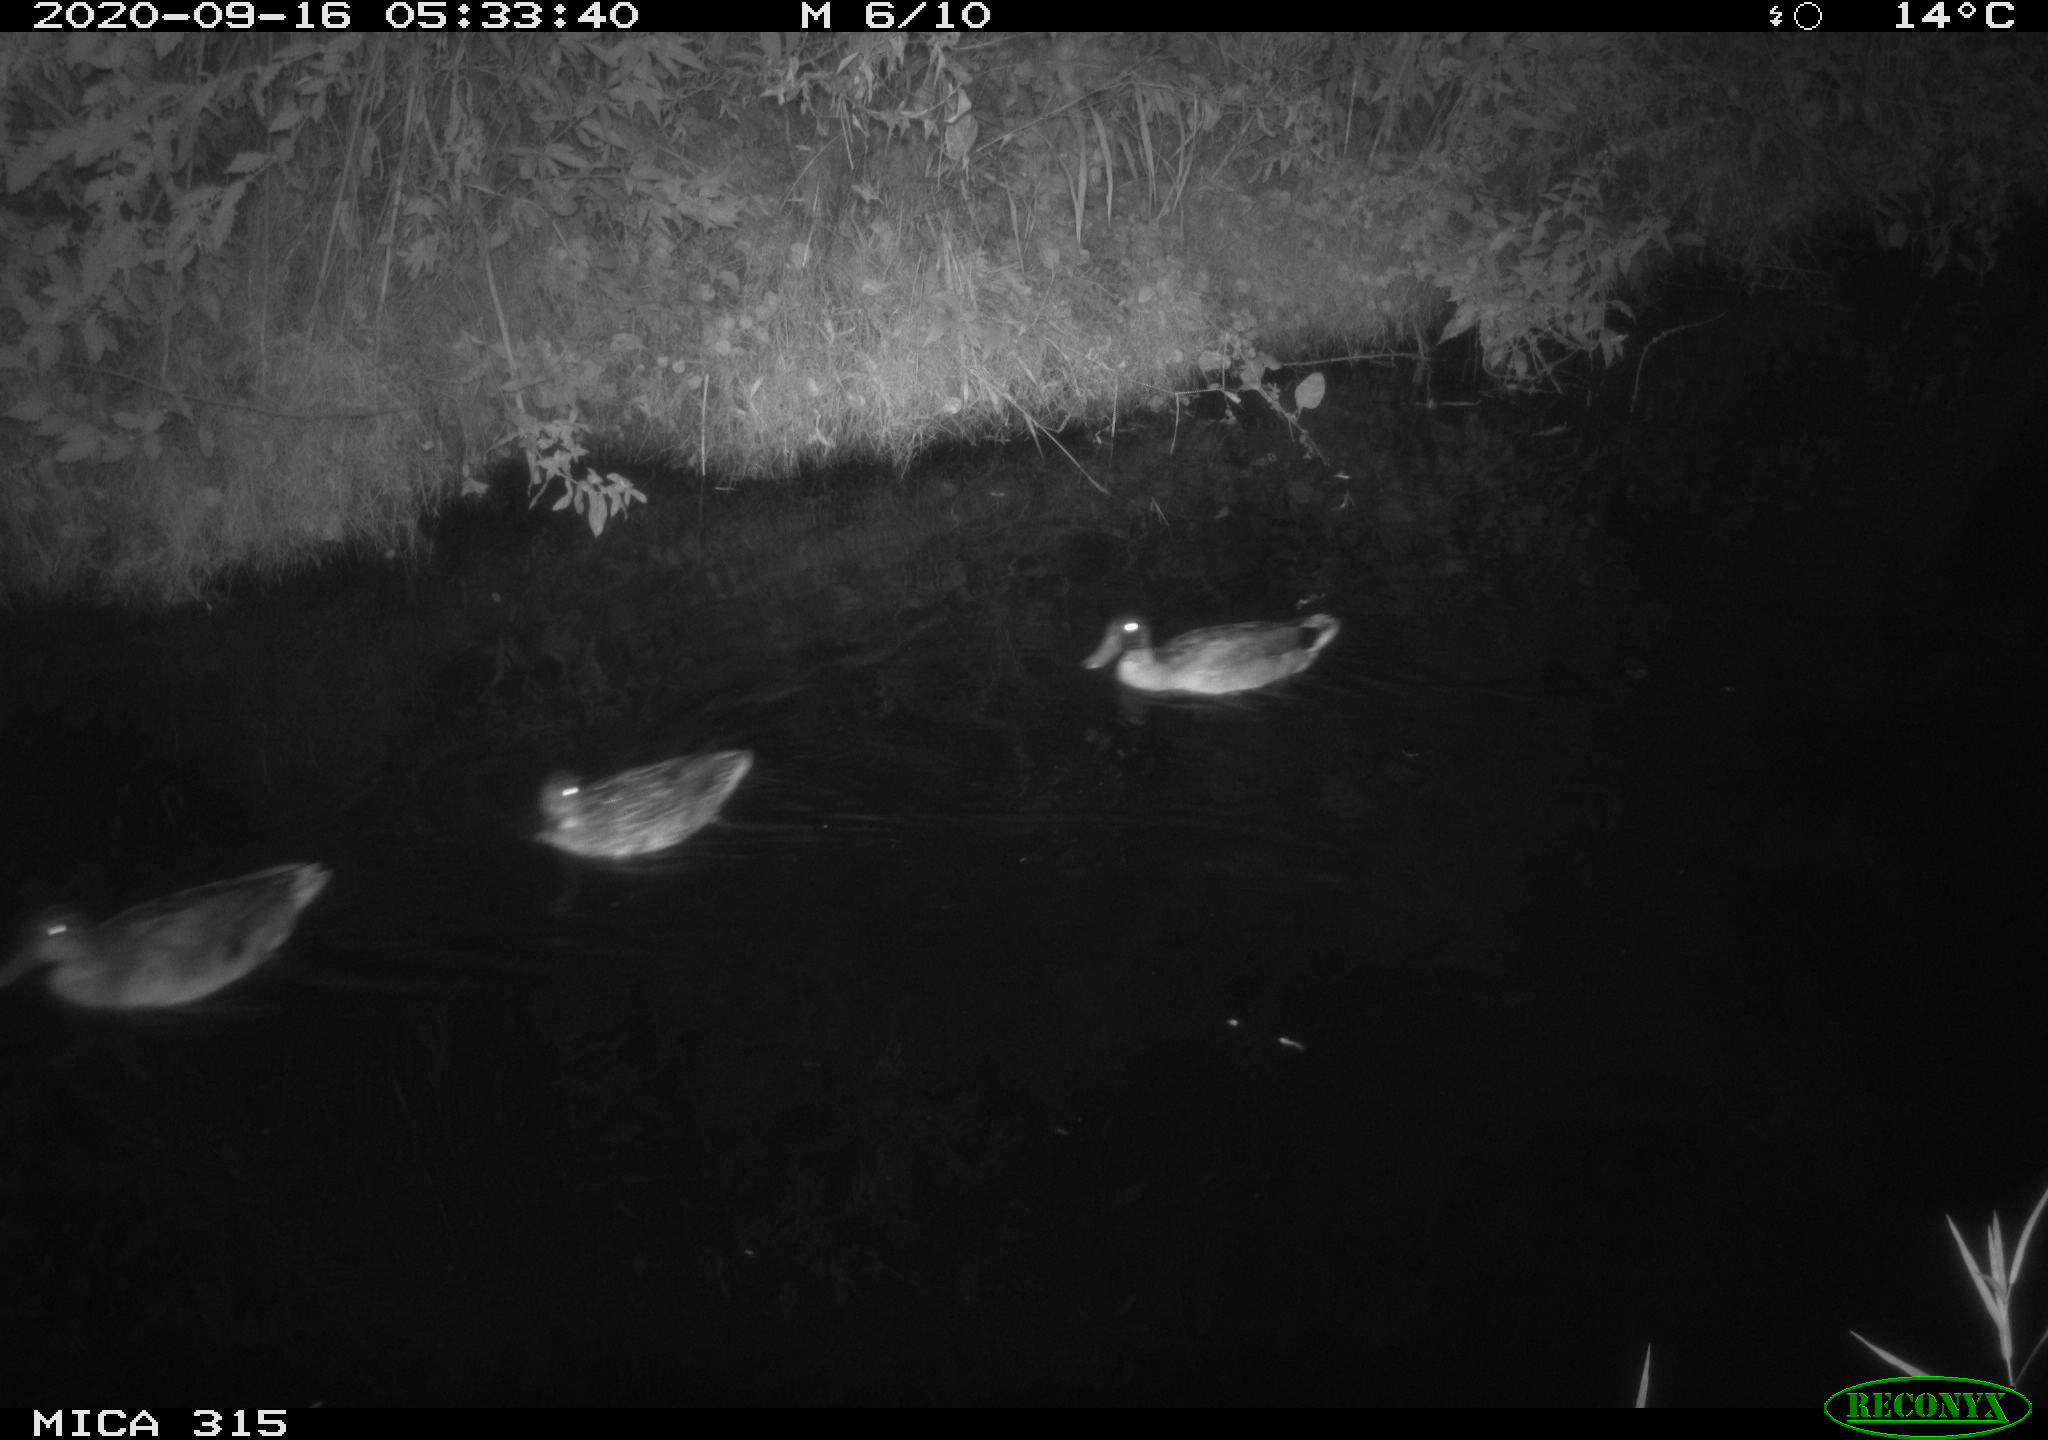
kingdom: Animalia
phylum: Chordata
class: Aves
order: Anseriformes
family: Anatidae
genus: Anas
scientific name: Anas platyrhynchos
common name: Mallard
